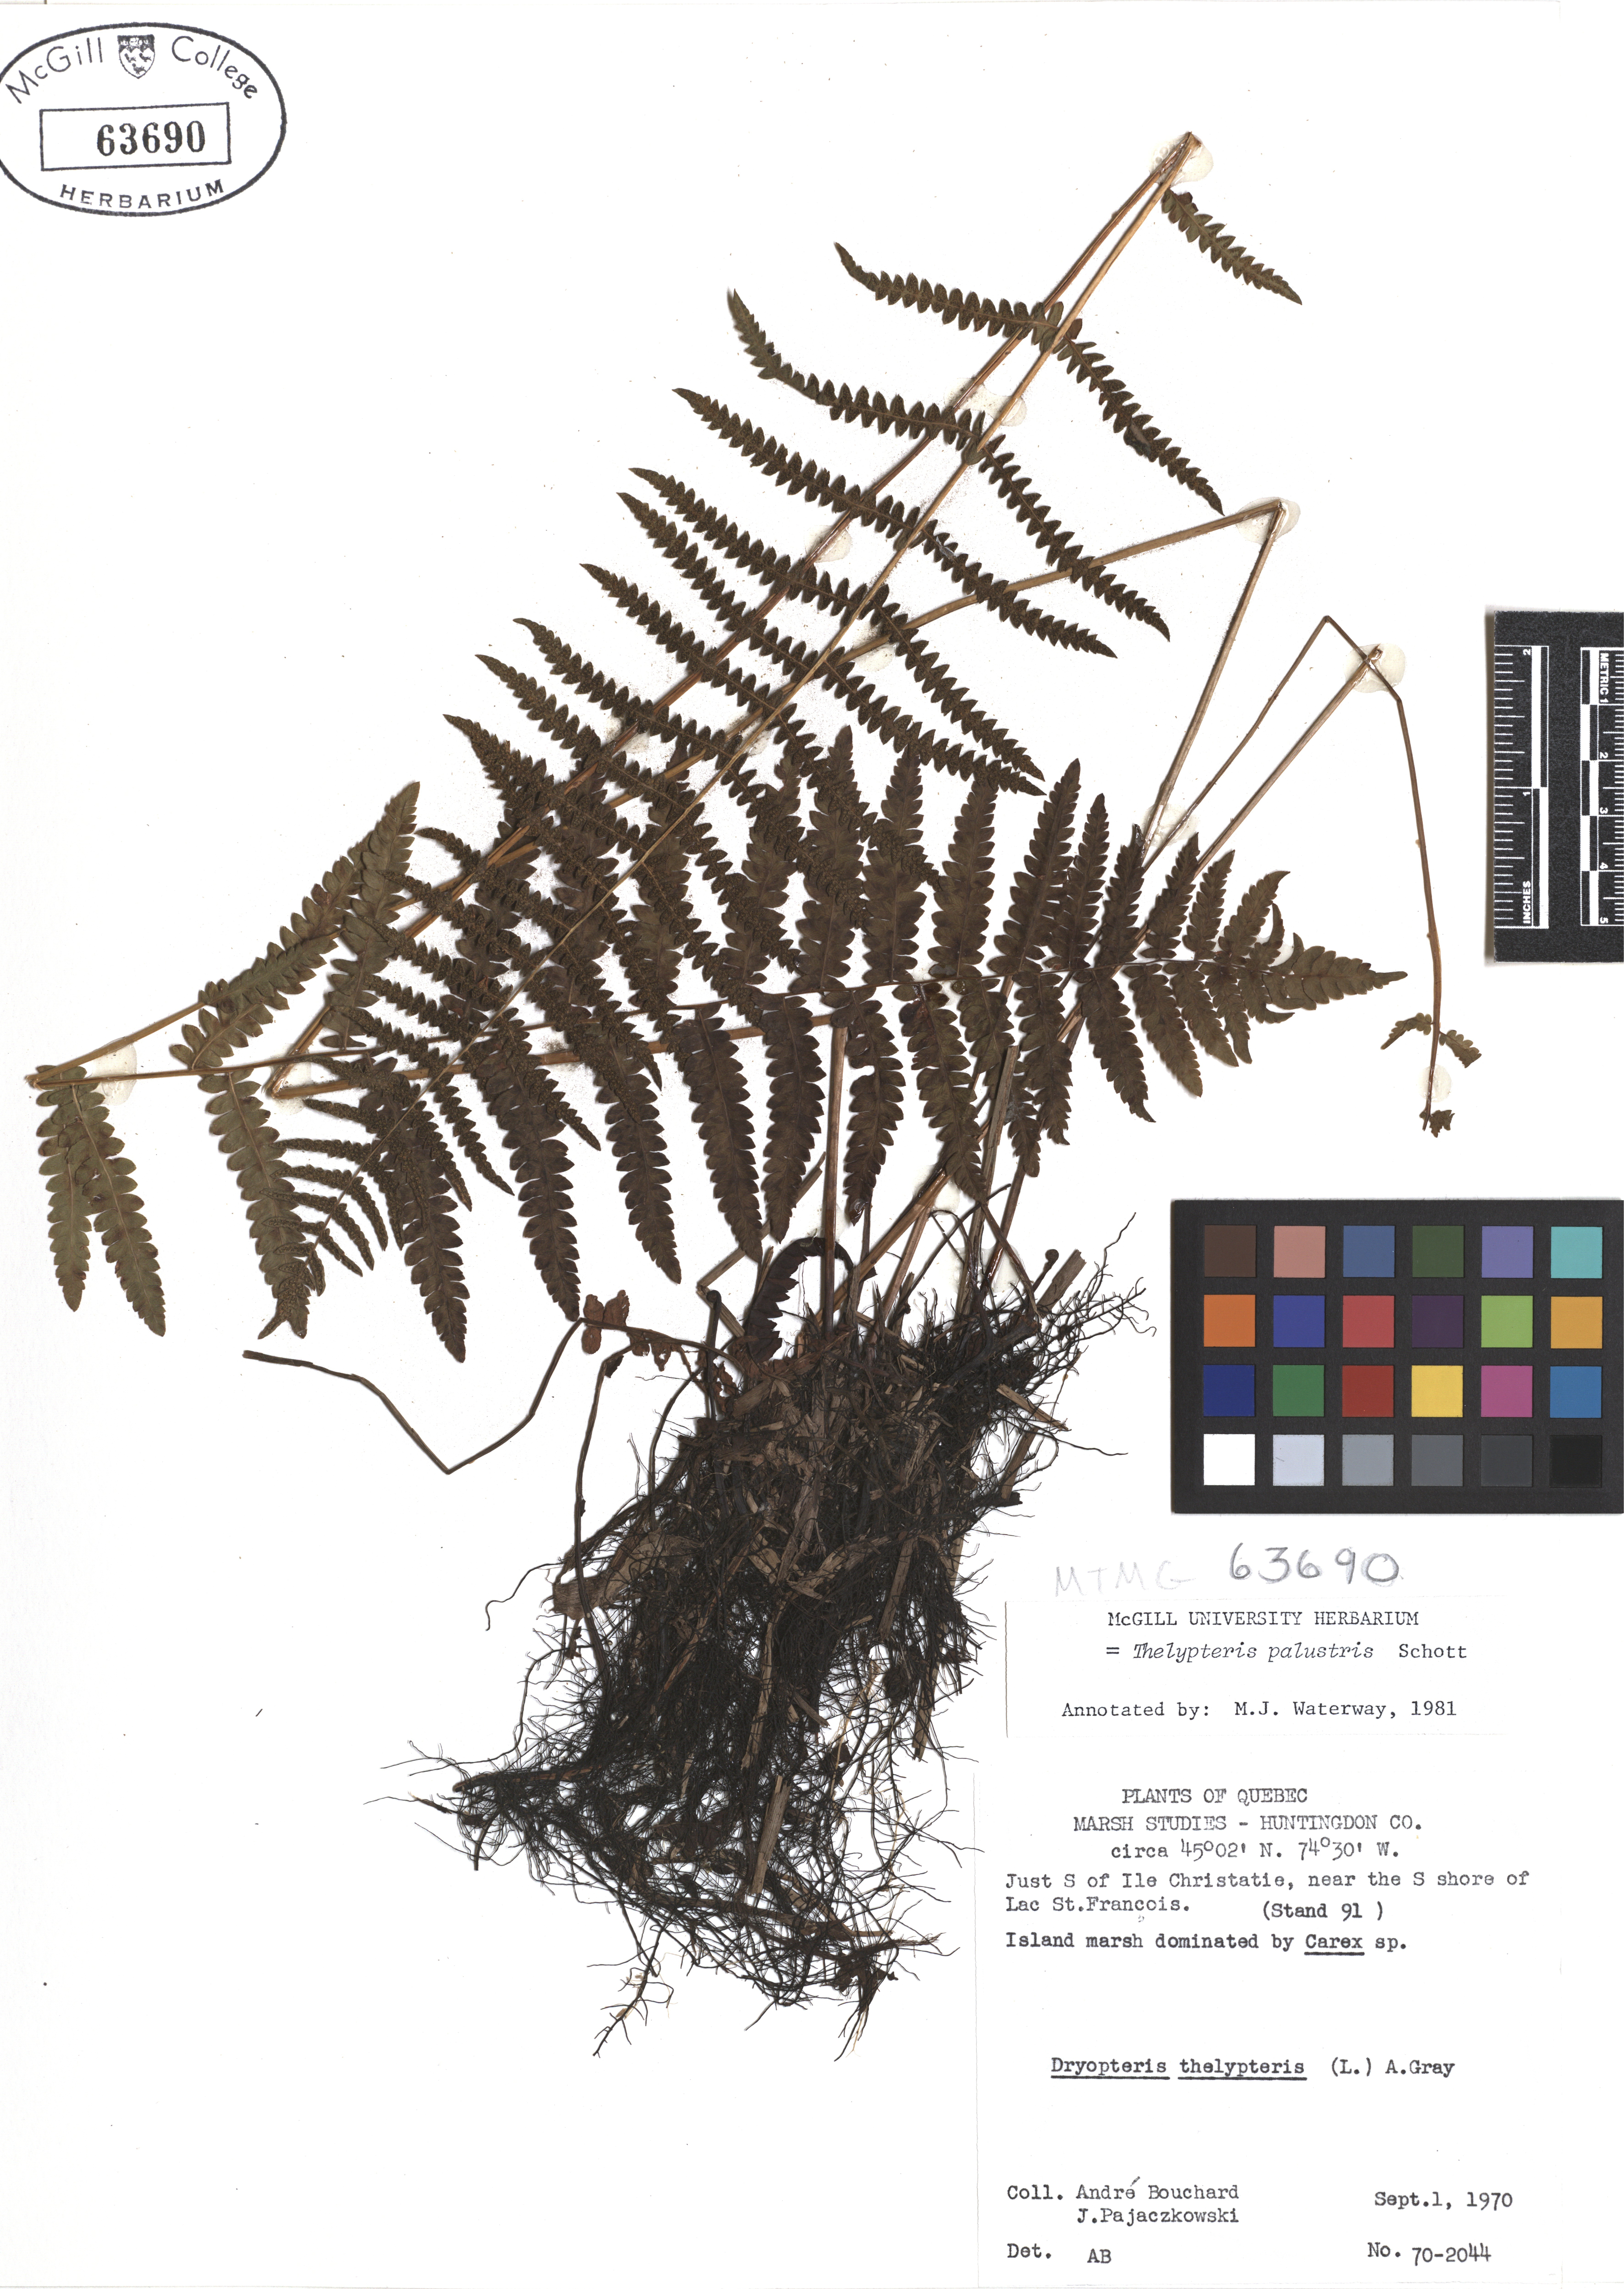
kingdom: Plantae
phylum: Tracheophyta
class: Polypodiopsida
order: Polypodiales
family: Thelypteridaceae
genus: Thelypteris
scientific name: Thelypteris palustris
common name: Marsh fern
